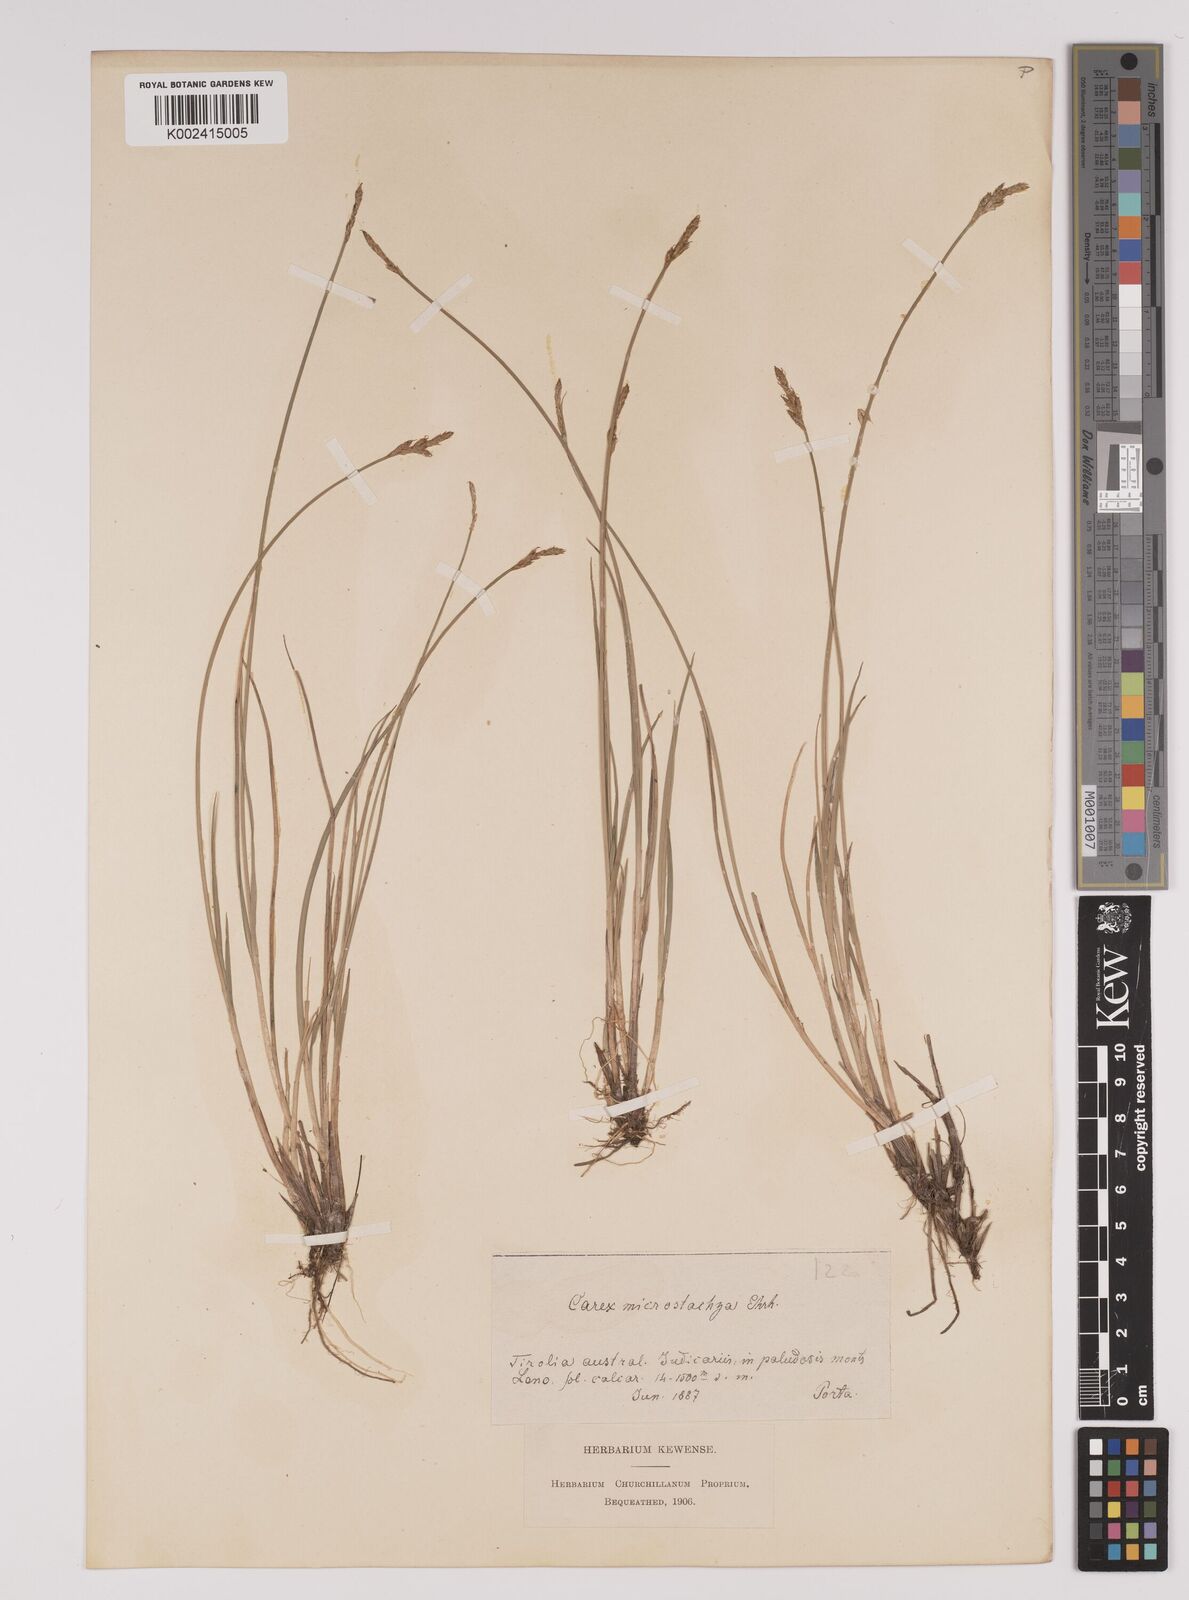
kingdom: Plantae
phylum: Tracheophyta
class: Liliopsida
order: Poales
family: Cyperaceae
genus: Carex
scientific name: Carex dioica
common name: Dioecious sedge
